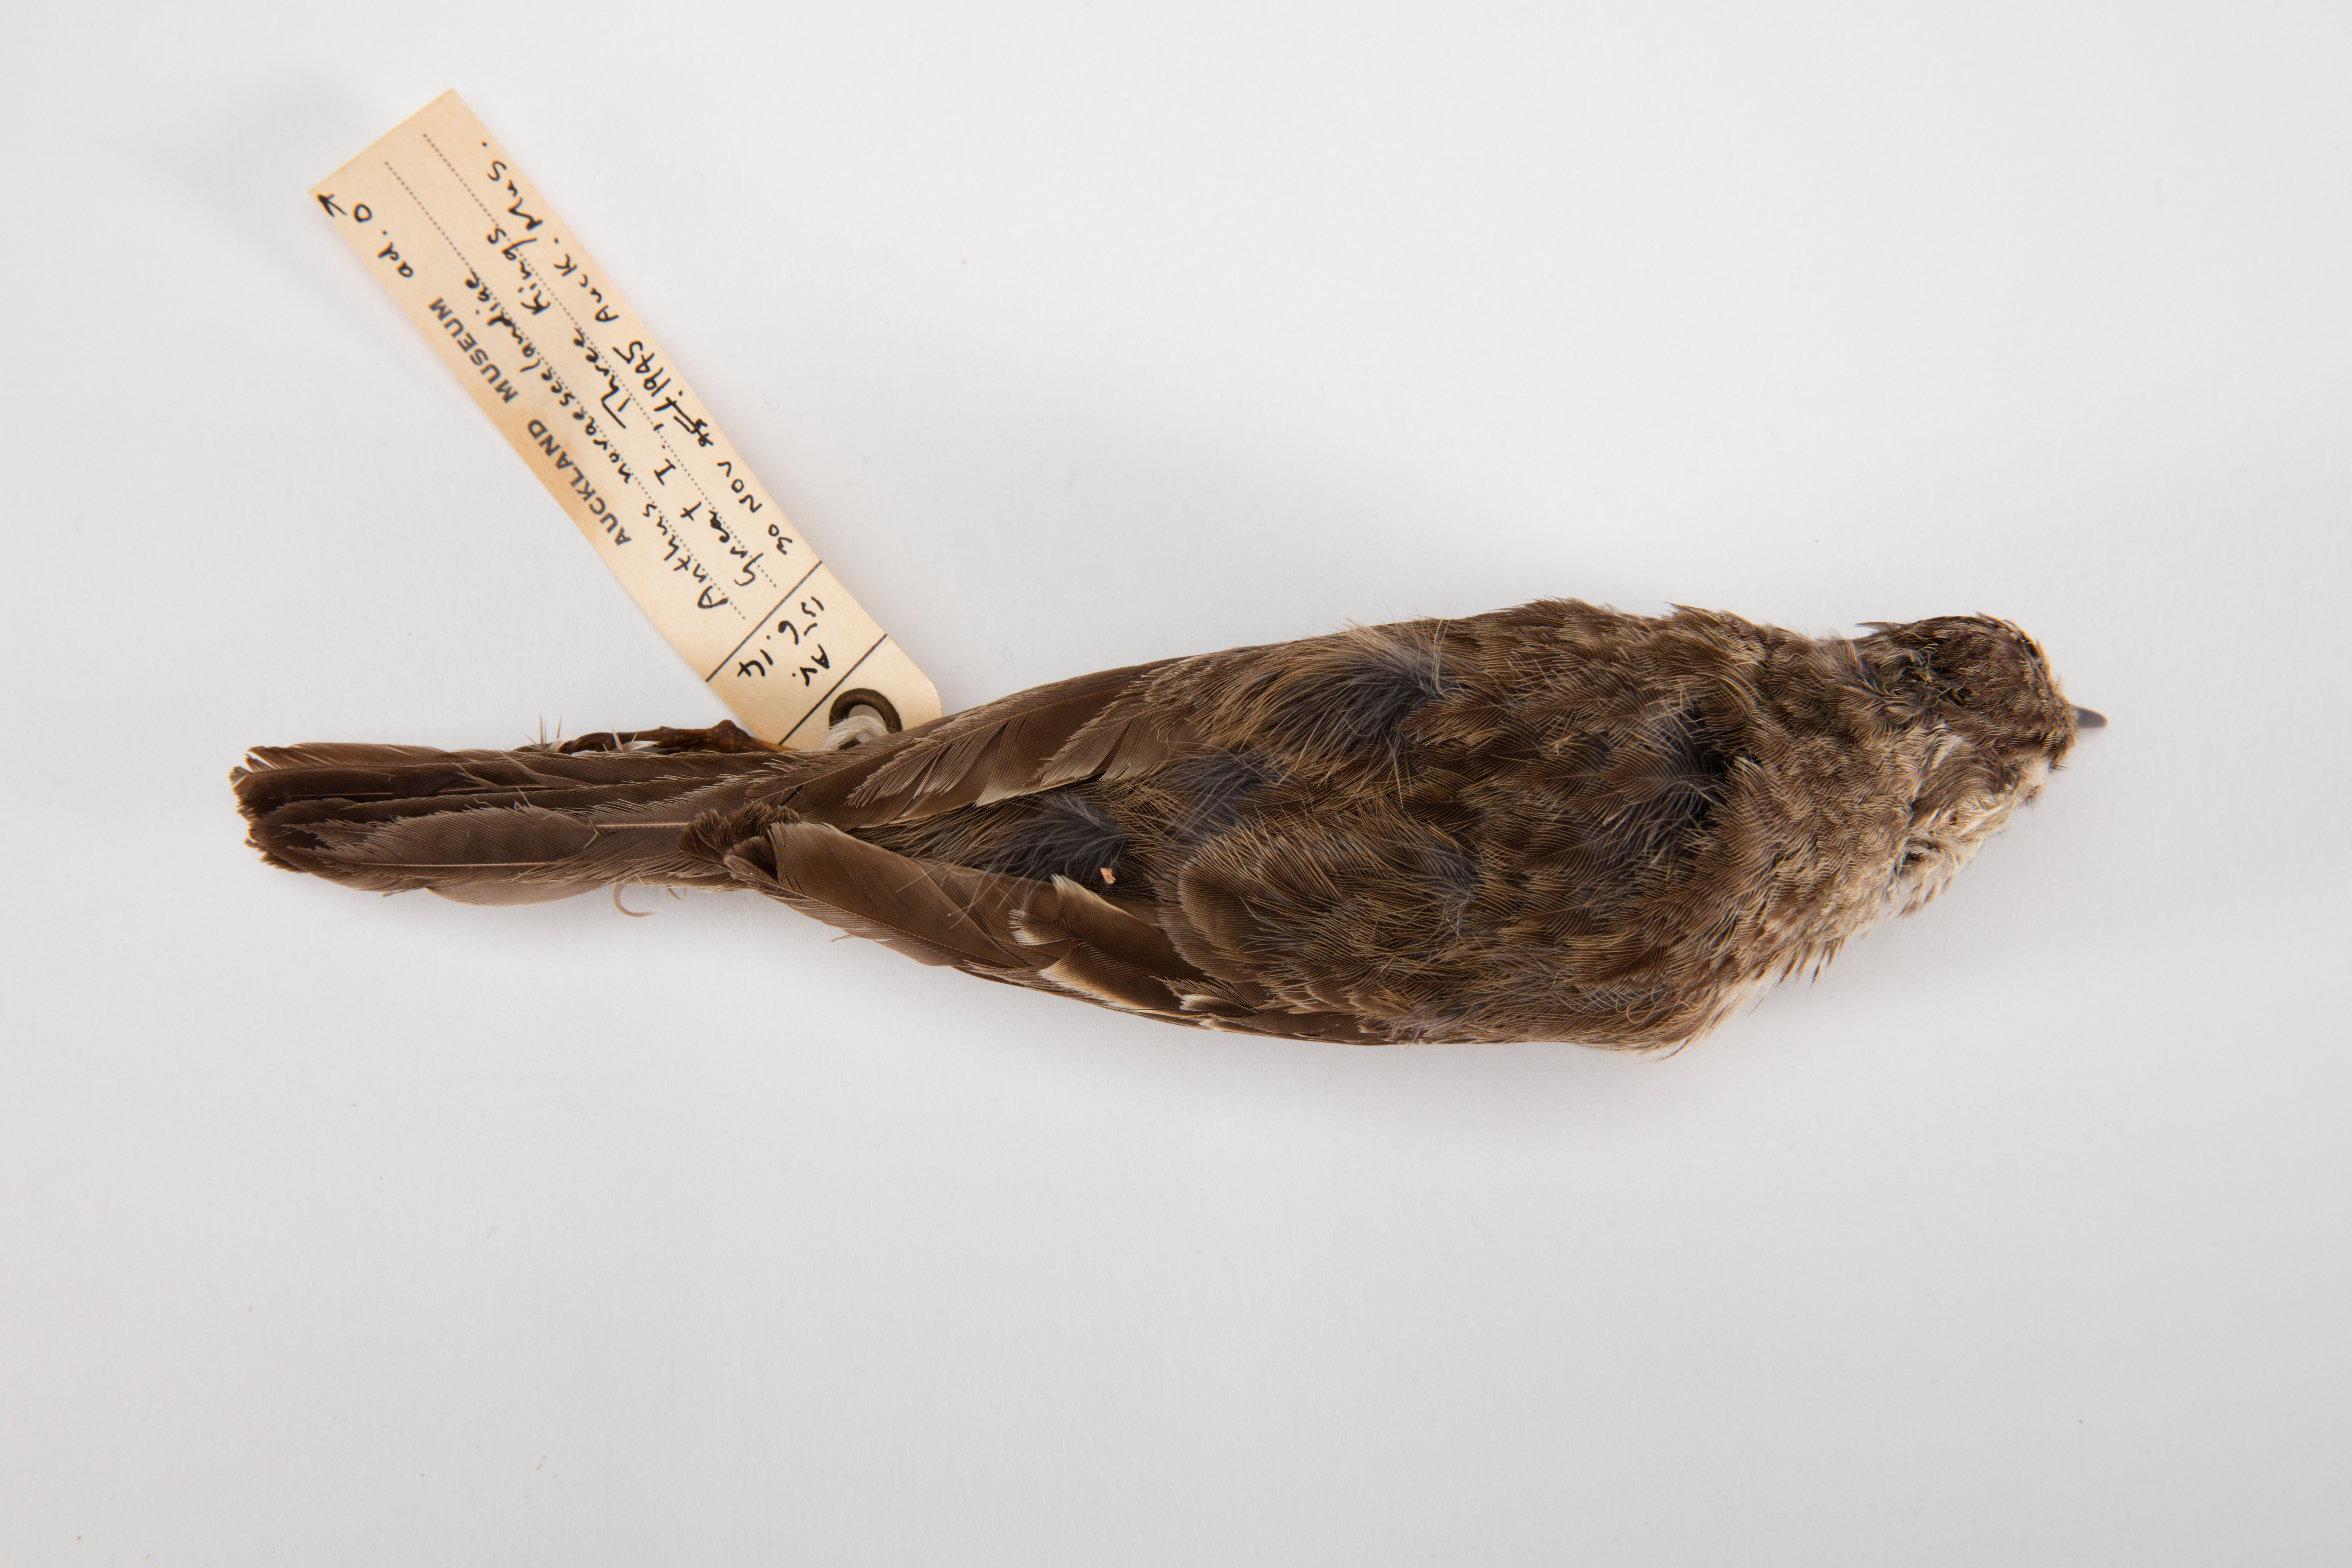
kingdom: Animalia
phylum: Chordata
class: Aves
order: Passeriformes
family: Motacillidae
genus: Anthus
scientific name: Anthus novaeseelandiae
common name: New zealand pipit
